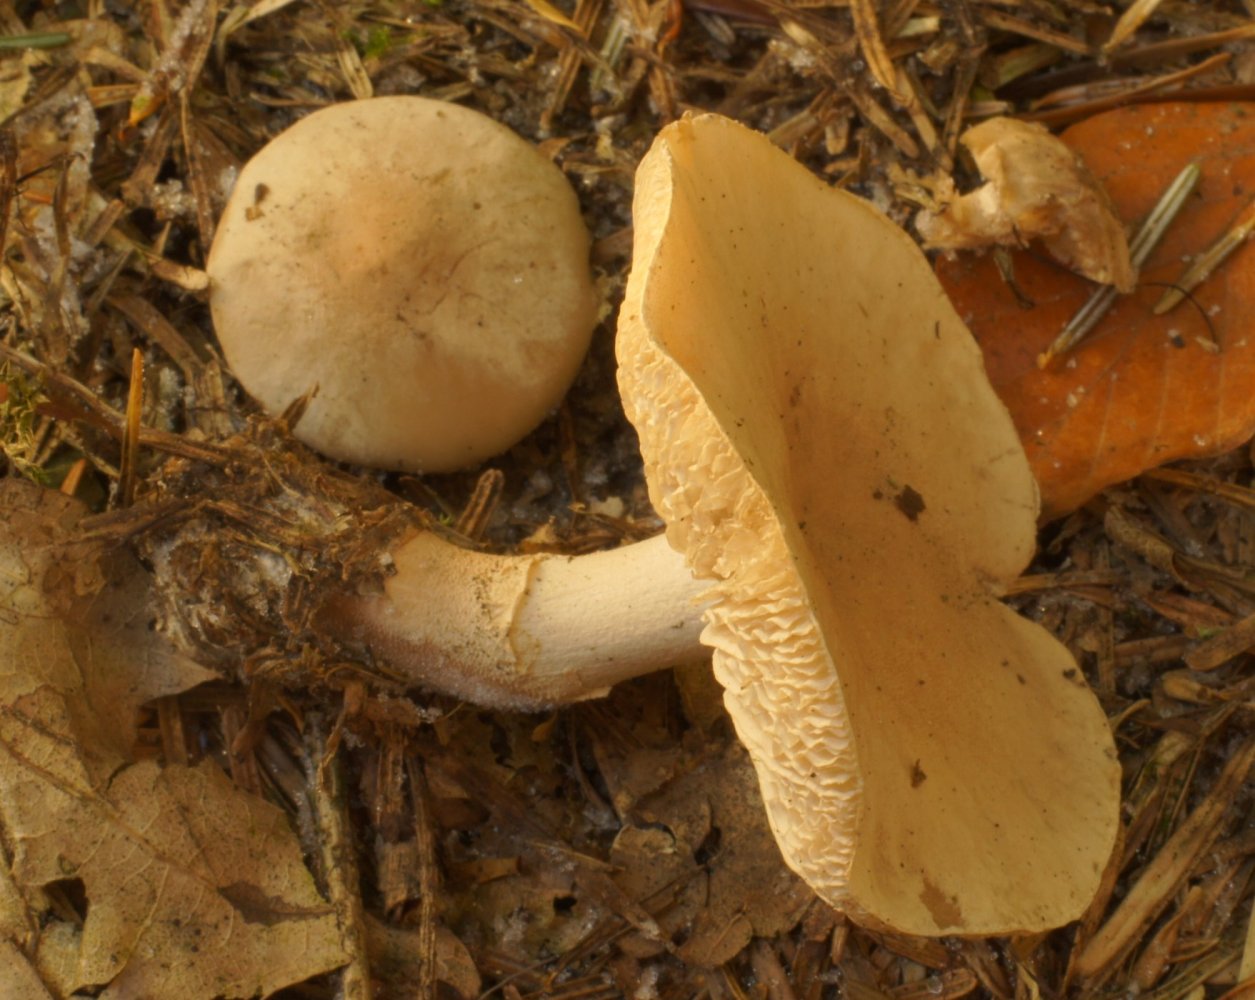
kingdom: Fungi
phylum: Basidiomycota
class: Agaricomycetes
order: Agaricales
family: Tricholomataceae
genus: Cystoderma
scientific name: Cystoderma amianthinum
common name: okkergul grynhat
